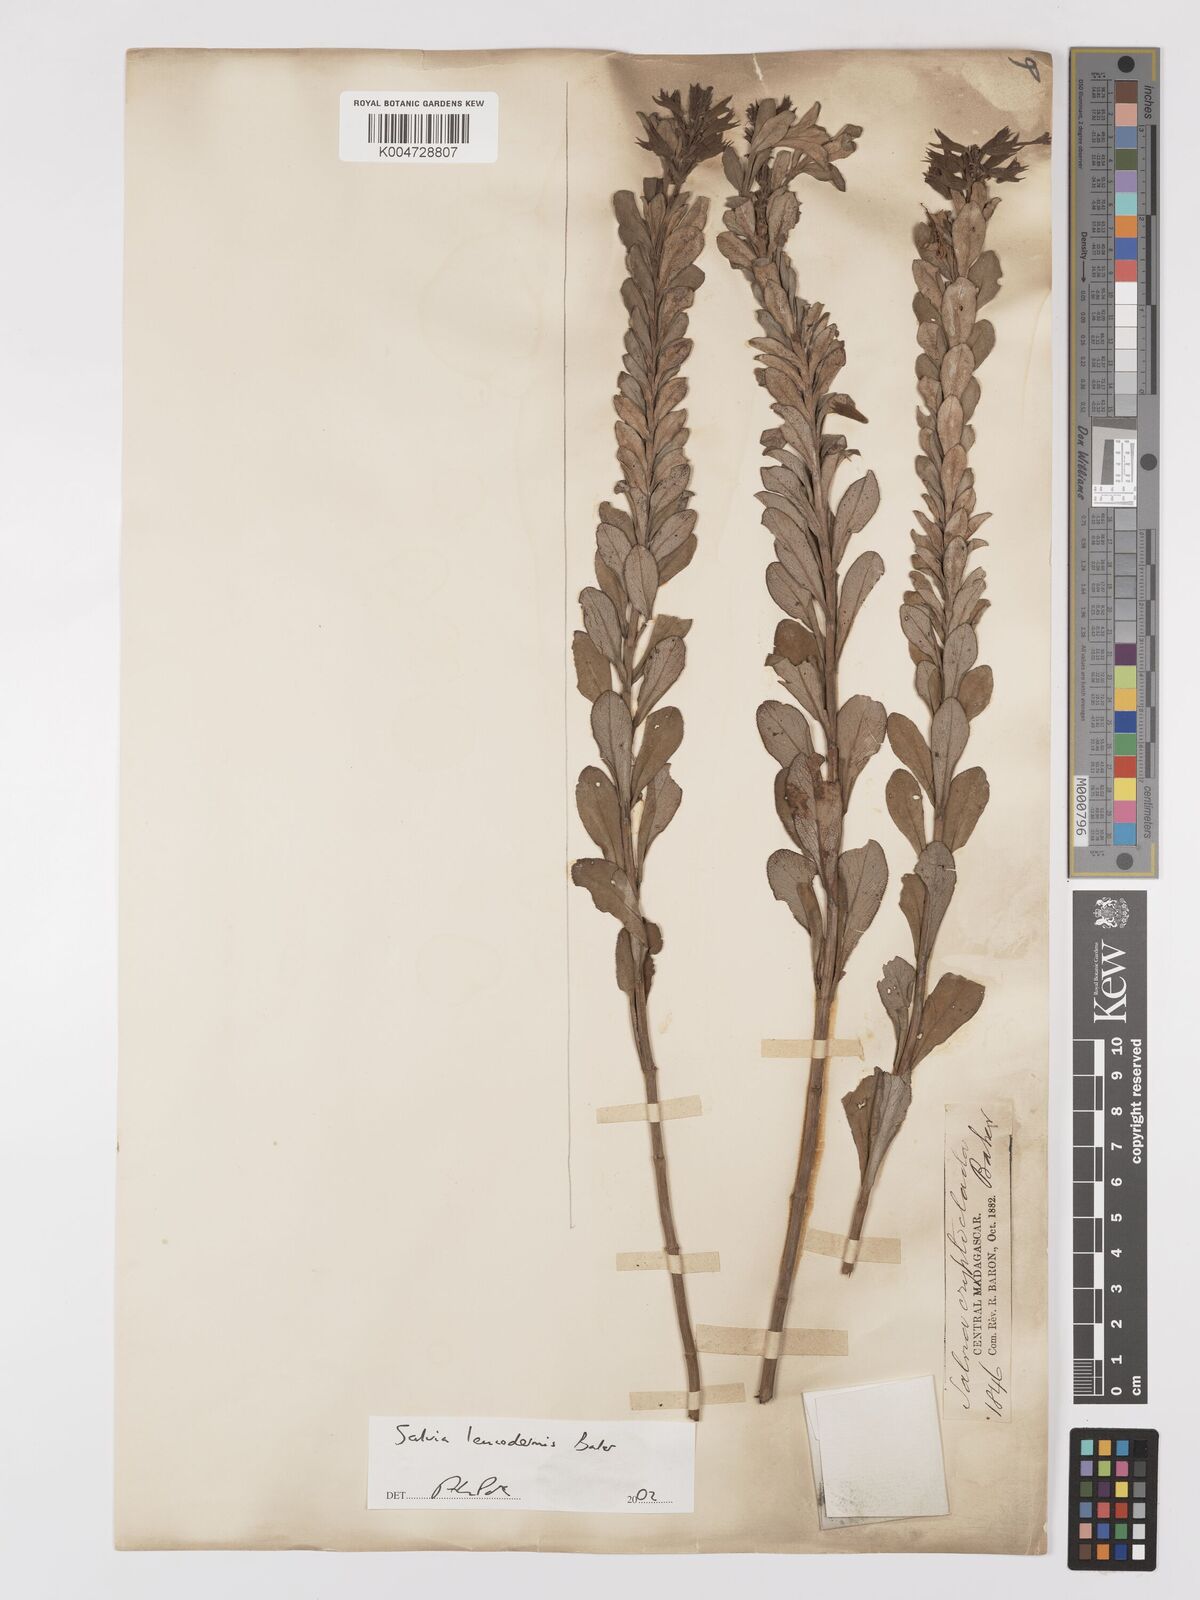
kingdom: Plantae
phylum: Tracheophyta
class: Magnoliopsida
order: Lamiales
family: Lamiaceae
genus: Salvia
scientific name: Salvia leucodermis
